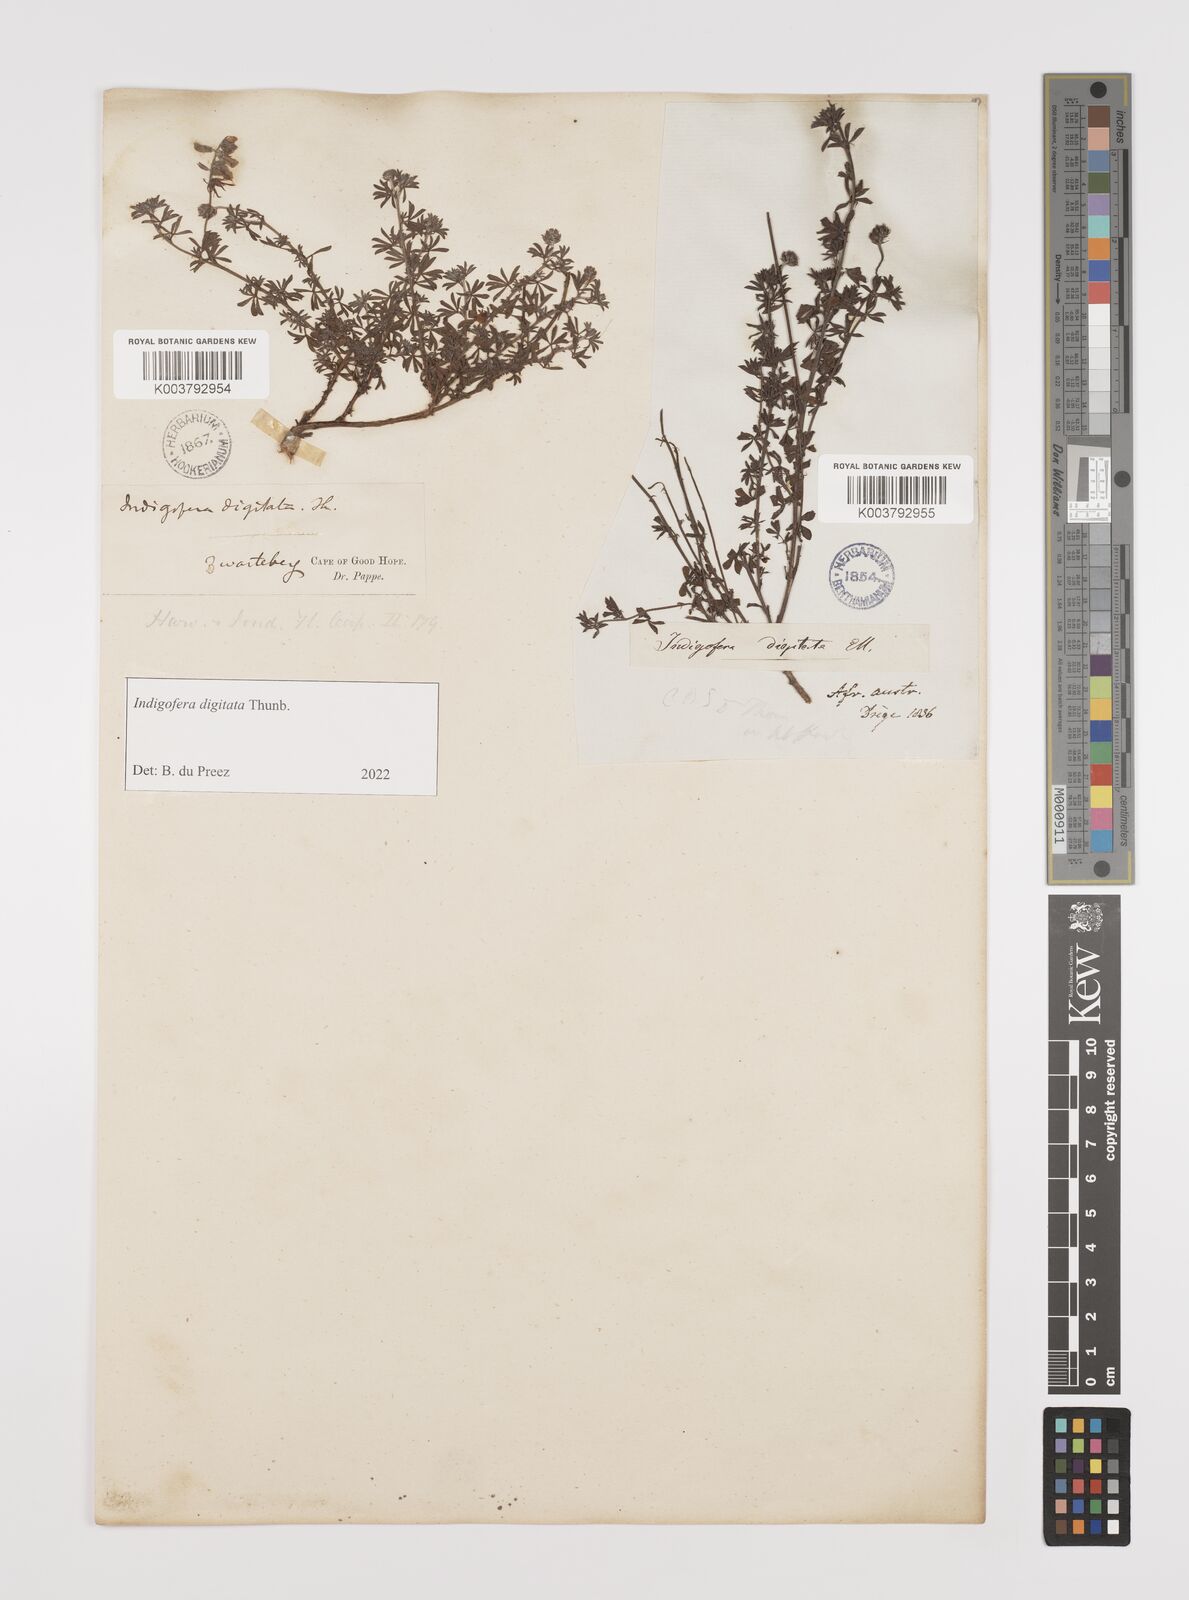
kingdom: Plantae
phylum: Tracheophyta
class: Magnoliopsida
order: Fabales
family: Fabaceae
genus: Indigofera
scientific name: Indigofera
